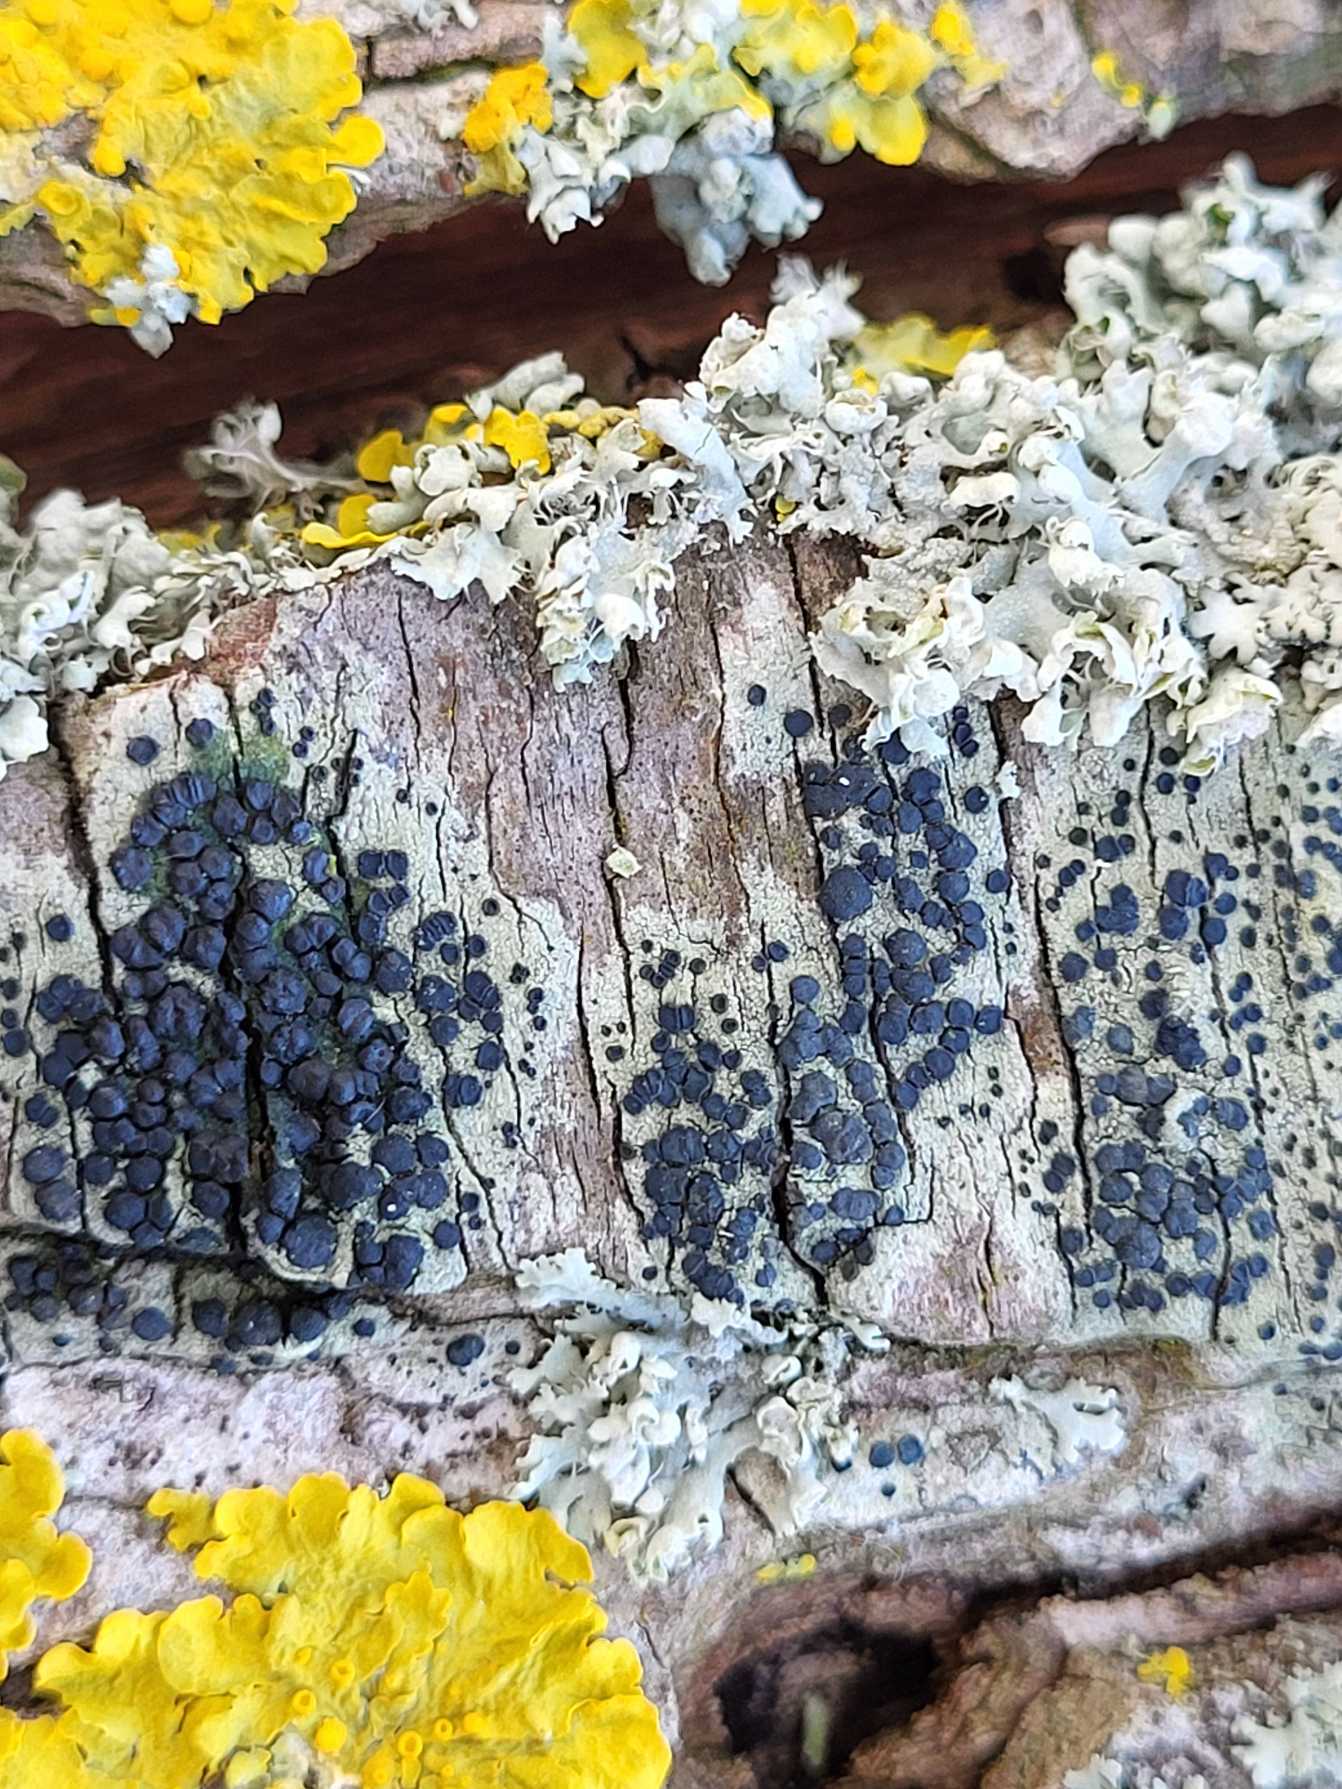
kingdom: Fungi
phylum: Ascomycota
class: Lecanoromycetes
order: Lecanorales
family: Lecanoraceae
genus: Lecidella
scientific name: Lecidella elaeochroma
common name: Grågrøn skivelav
